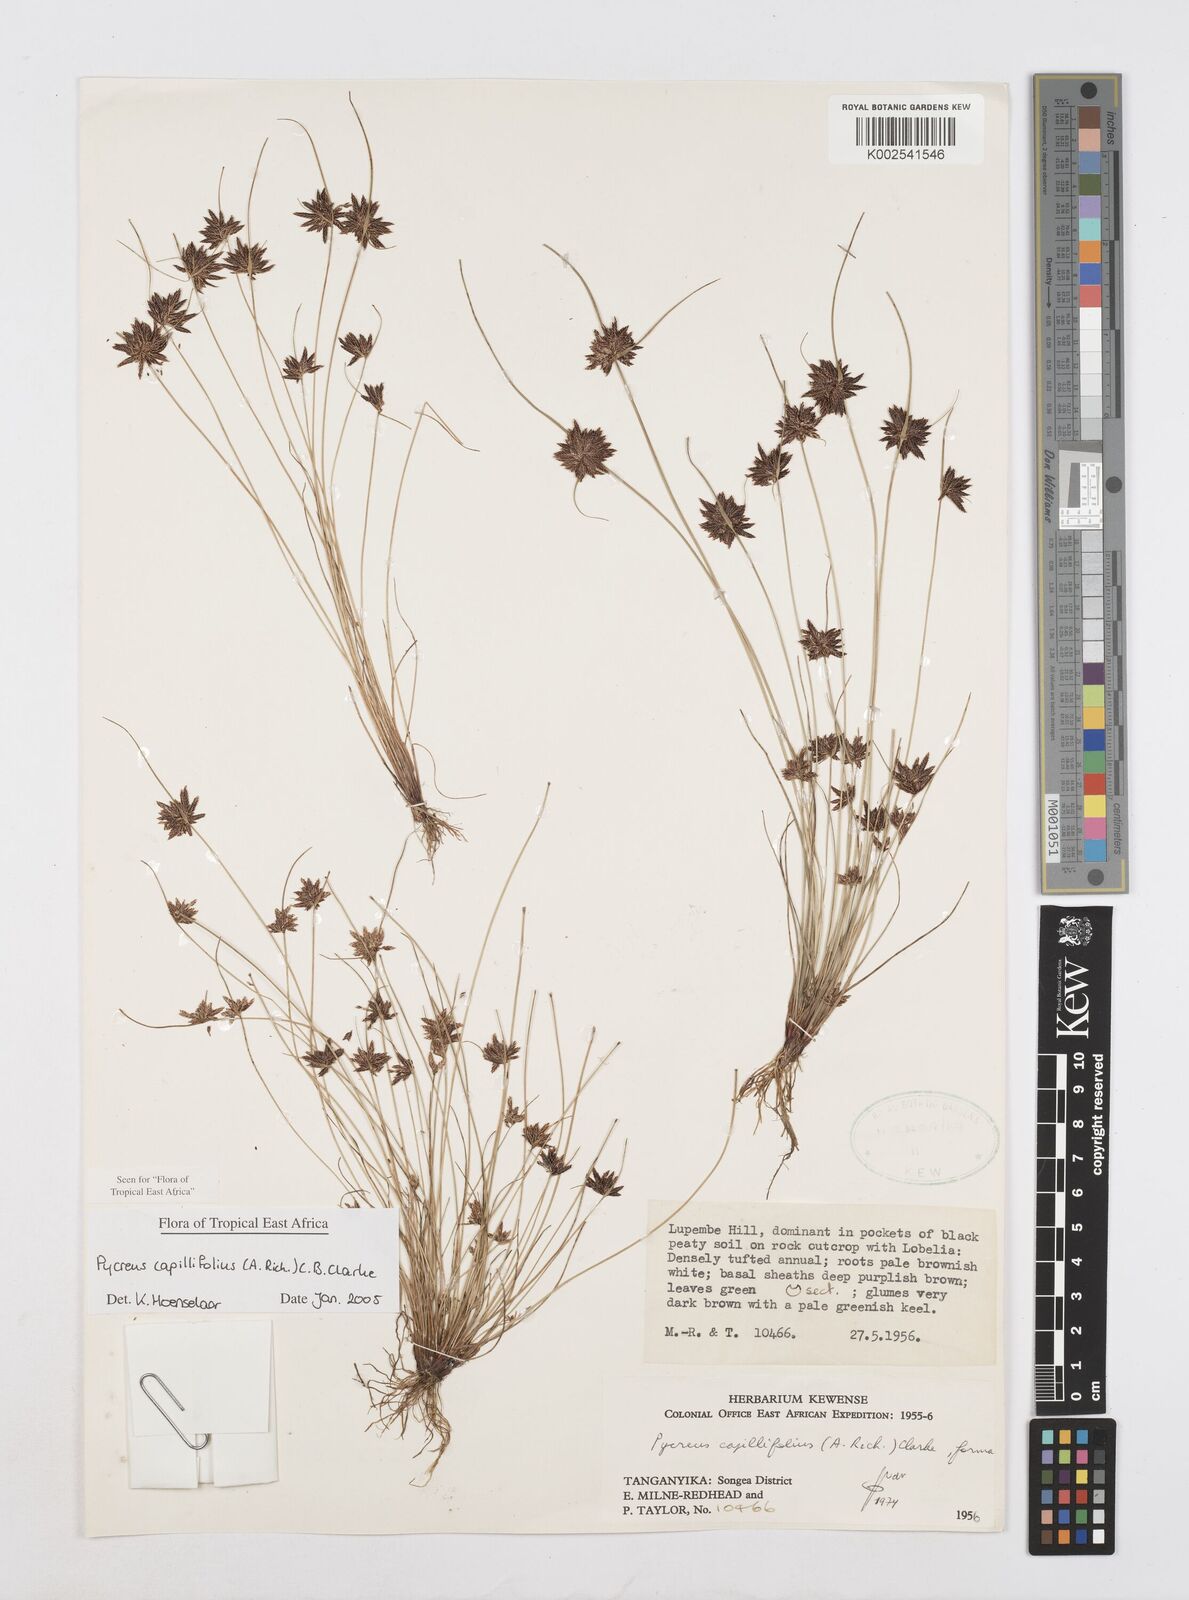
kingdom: Plantae
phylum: Tracheophyta
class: Liliopsida
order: Poales
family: Cyperaceae
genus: Cyperus
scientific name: Cyperus capillifolius
